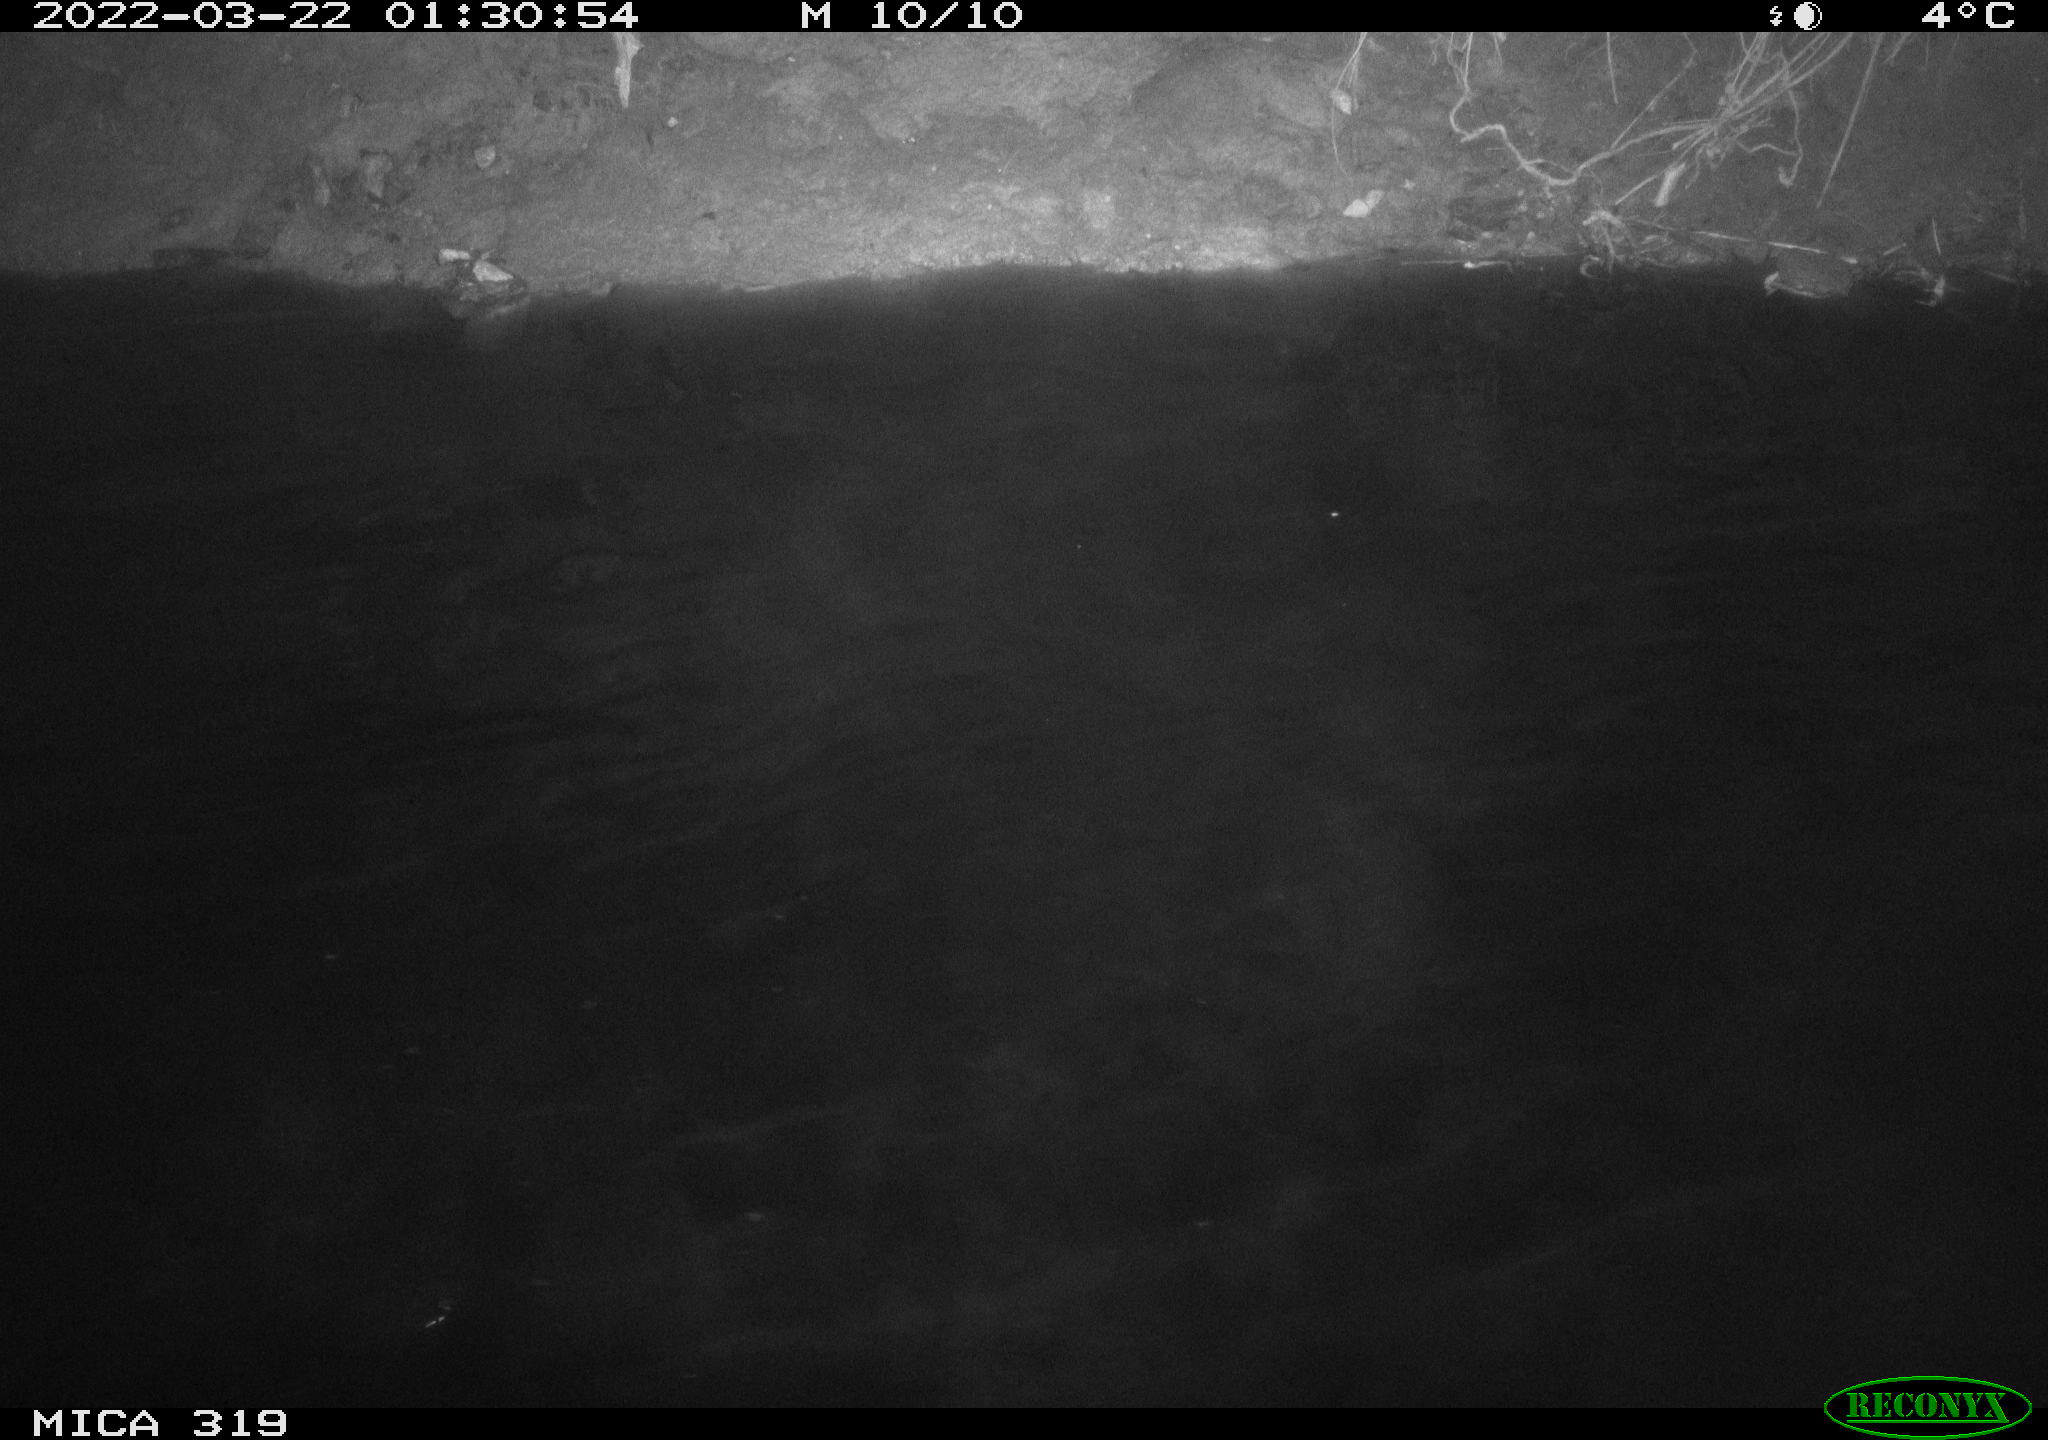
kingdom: Animalia
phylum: Chordata
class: Aves
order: Anseriformes
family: Anatidae
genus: Anas
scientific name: Anas platyrhynchos
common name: Mallard
